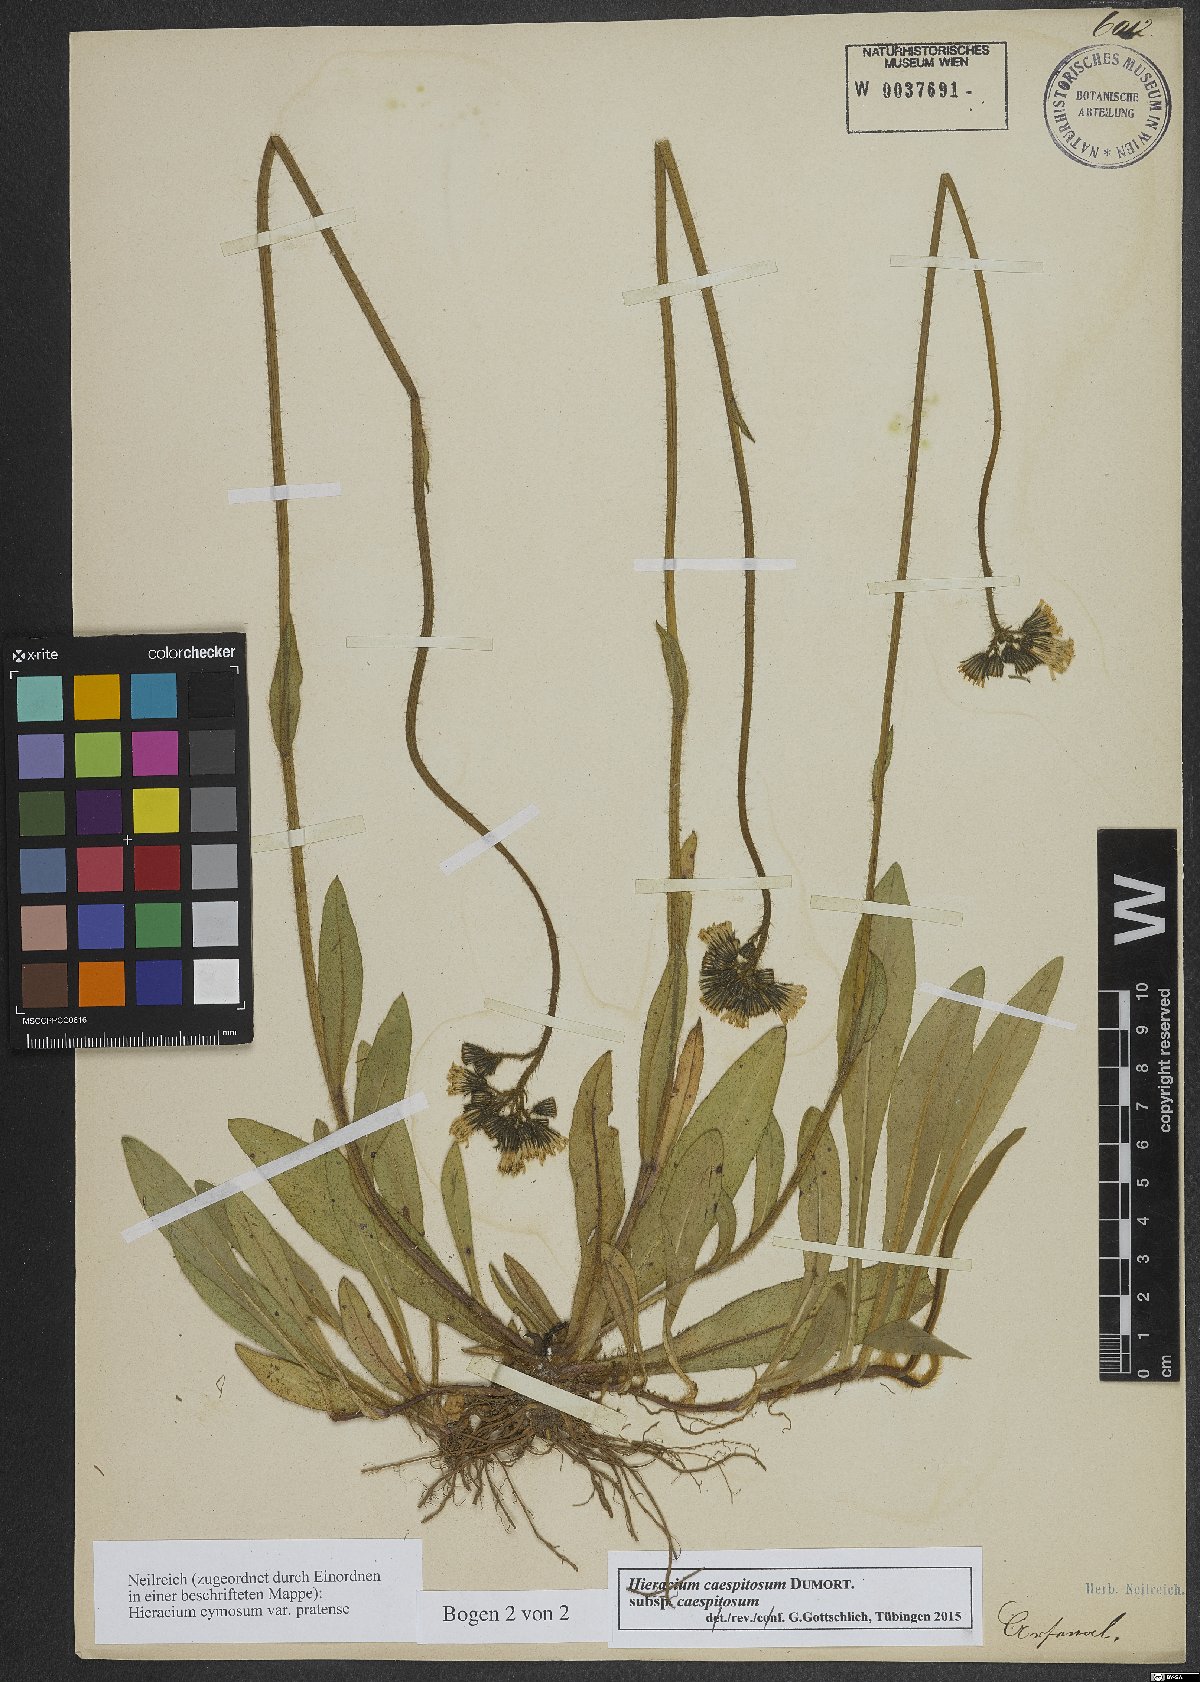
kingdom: Plantae
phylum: Tracheophyta
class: Magnoliopsida
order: Asterales
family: Asteraceae
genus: Pilosella
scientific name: Pilosella caespitosa
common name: Yellow fox-and-cubs
